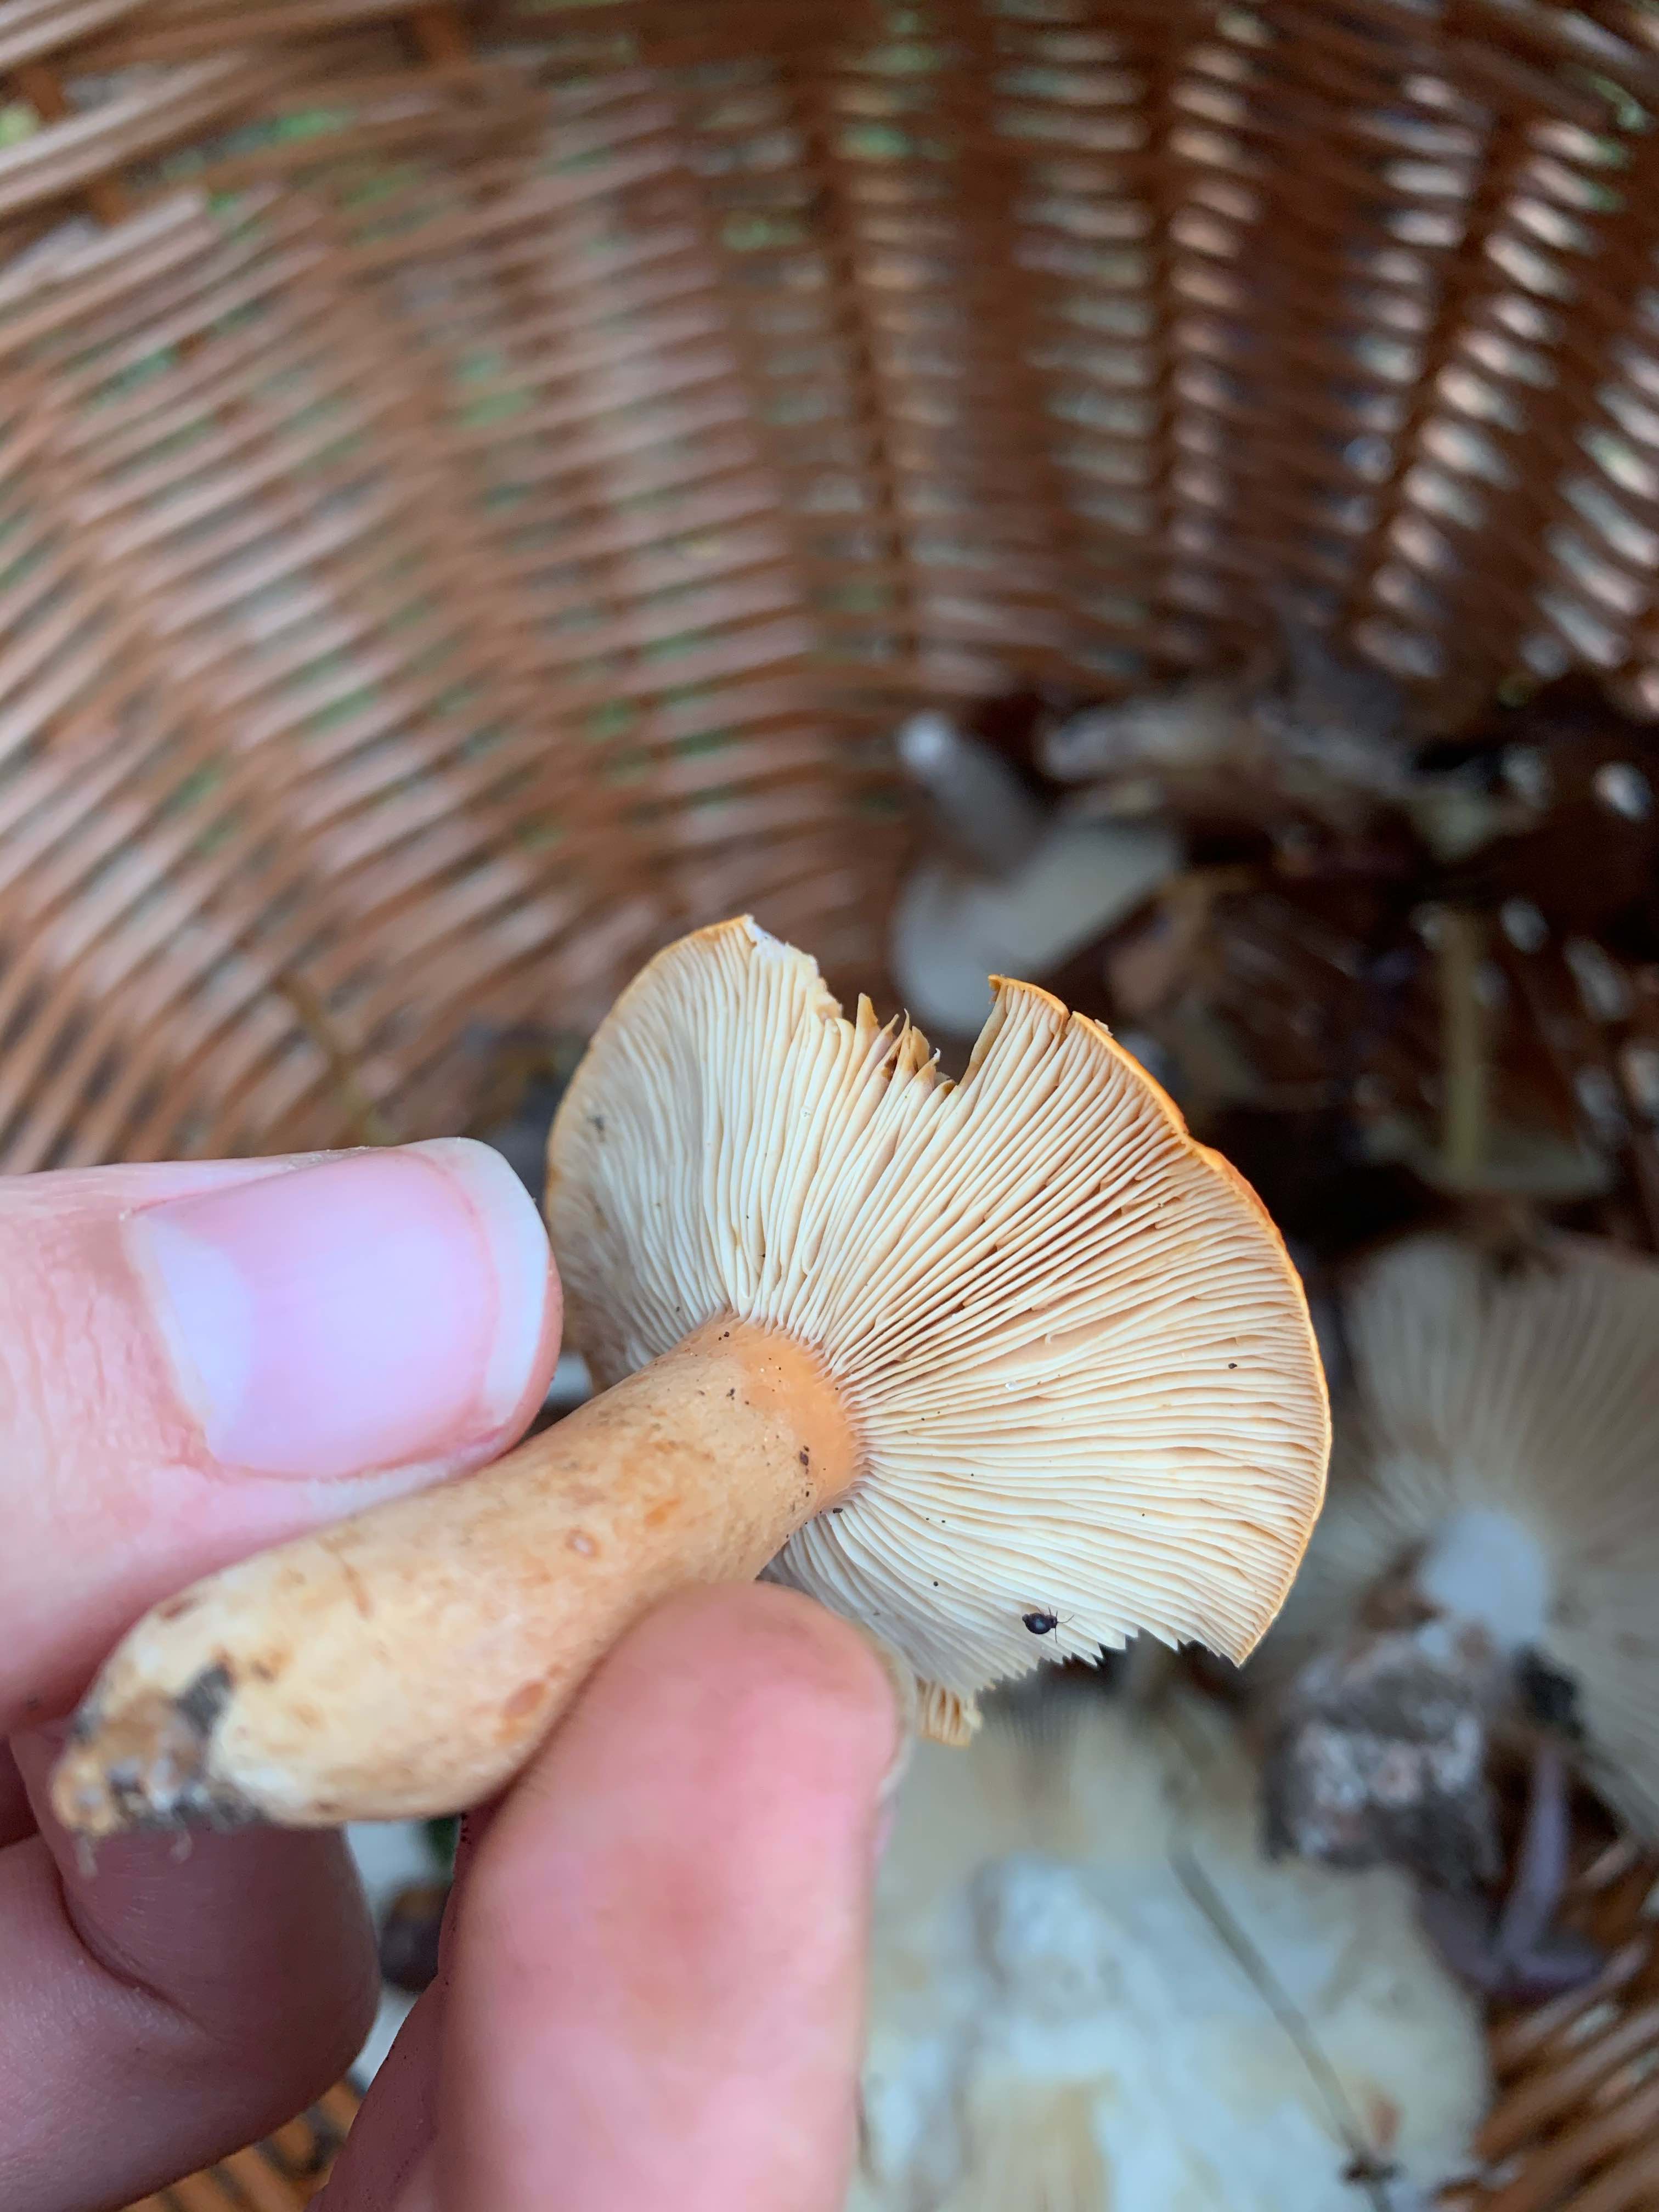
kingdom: Fungi
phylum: Basidiomycota
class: Agaricomycetes
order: Russulales
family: Russulaceae
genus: Lactarius
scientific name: Lactarius aurantiacus
